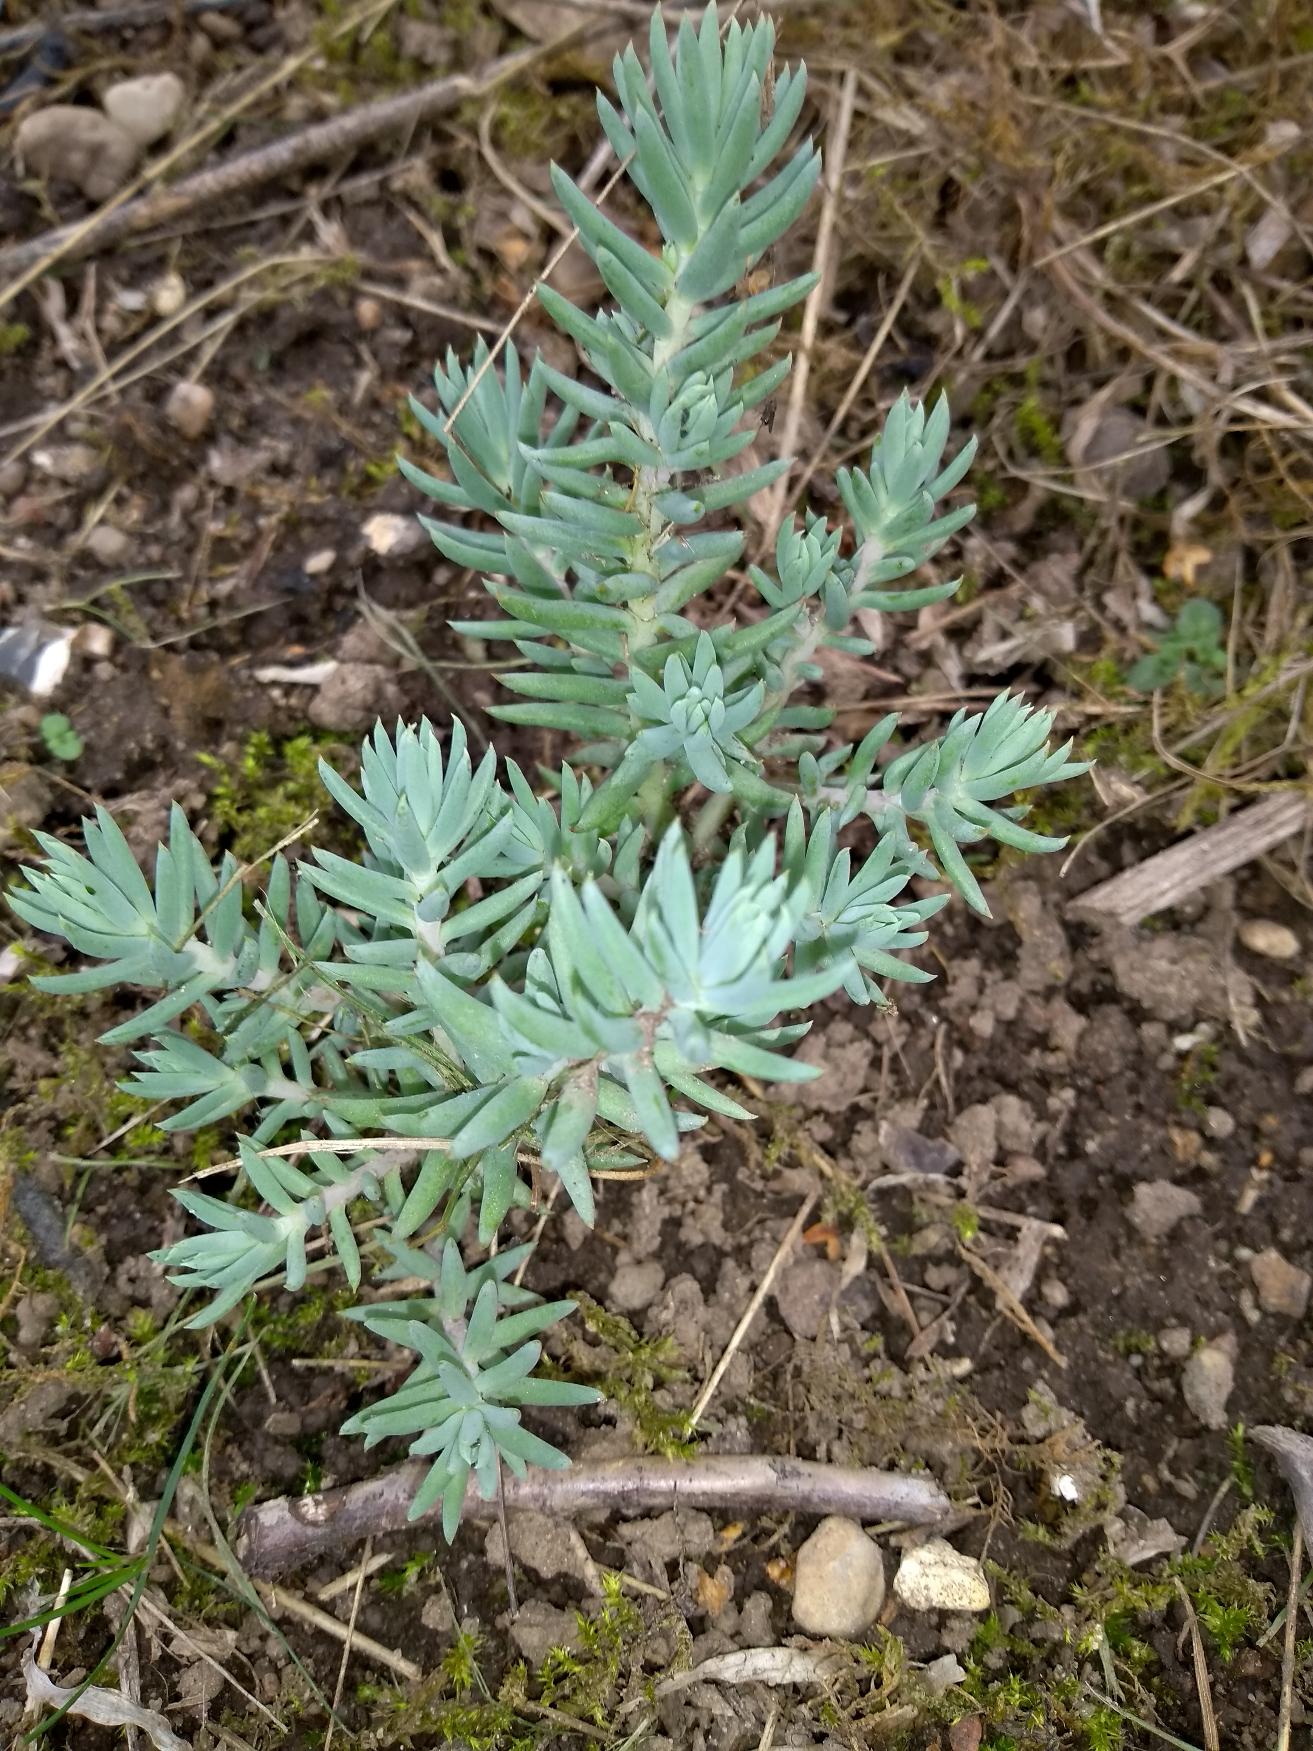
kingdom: Plantae
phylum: Tracheophyta
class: Magnoliopsida
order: Saxifragales
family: Crassulaceae
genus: Petrosedum
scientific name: Petrosedum rupestre
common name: Bjerg-stenurt
